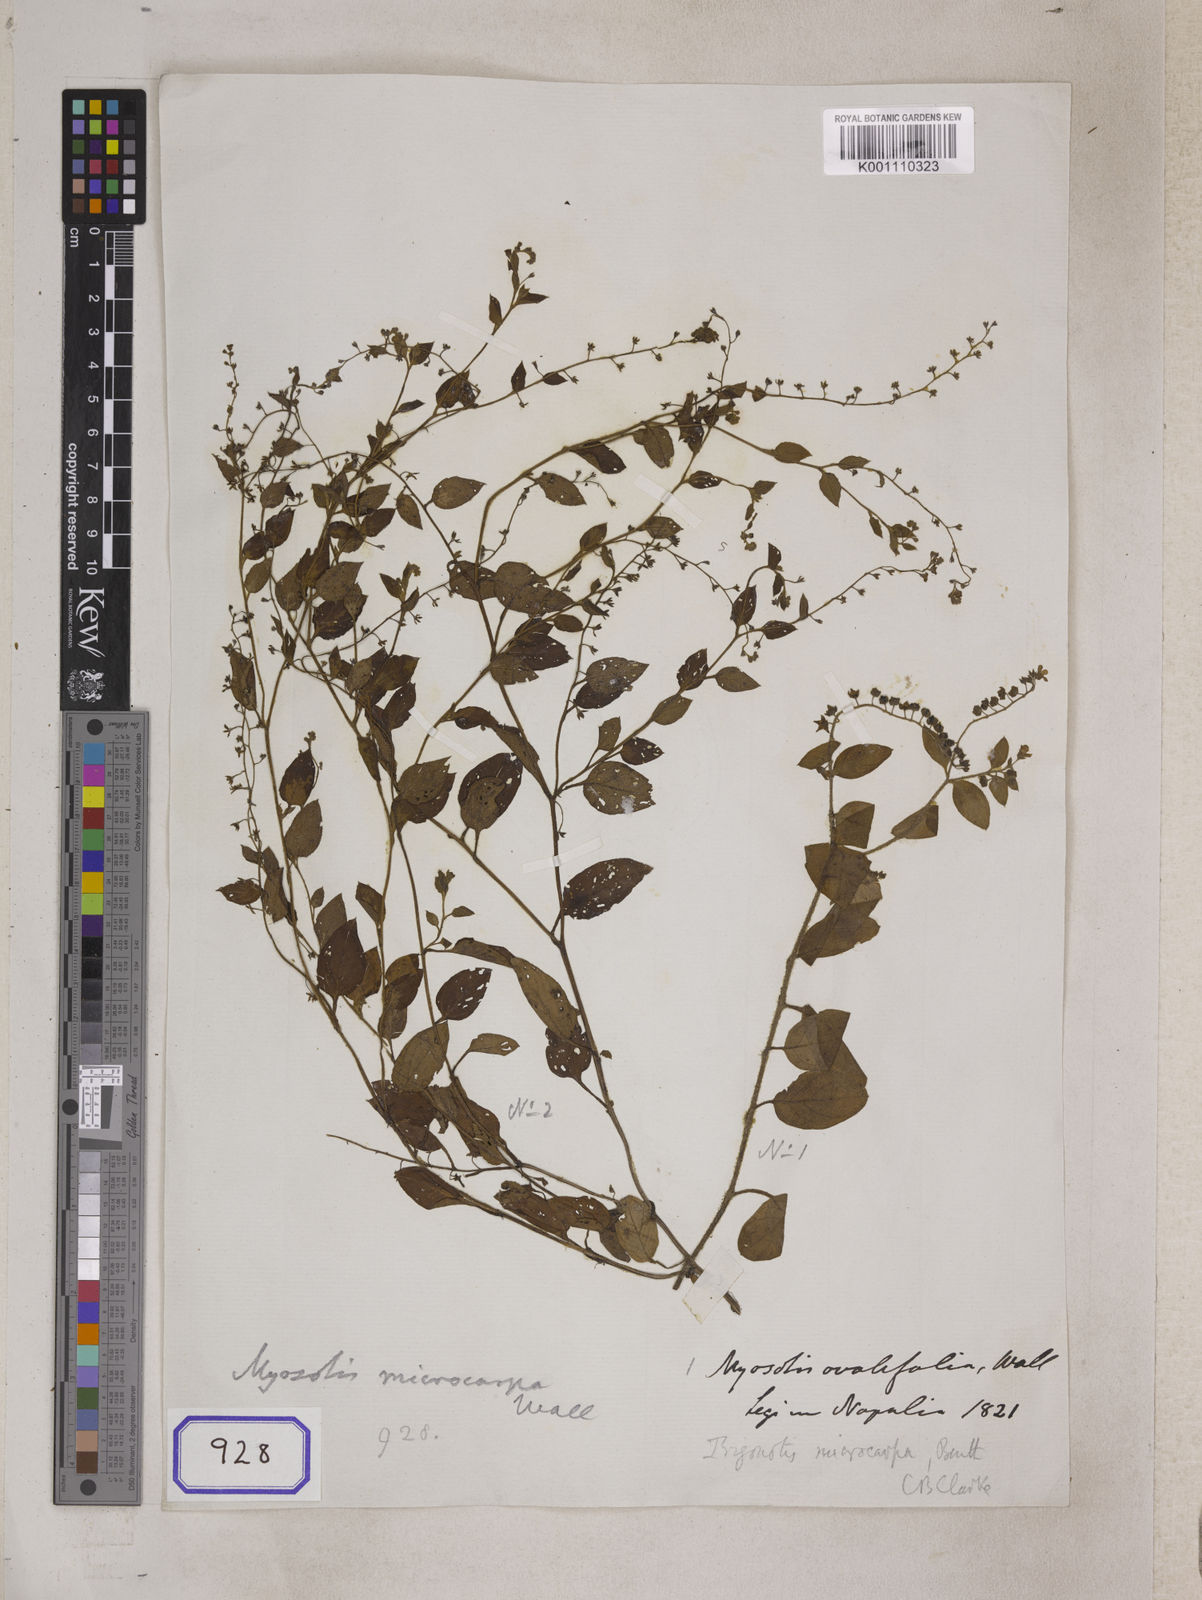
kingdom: Plantae
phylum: Tracheophyta
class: Magnoliopsida
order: Boraginales
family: Boraginaceae
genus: Trigonotis
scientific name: Trigonotis microcarpa
